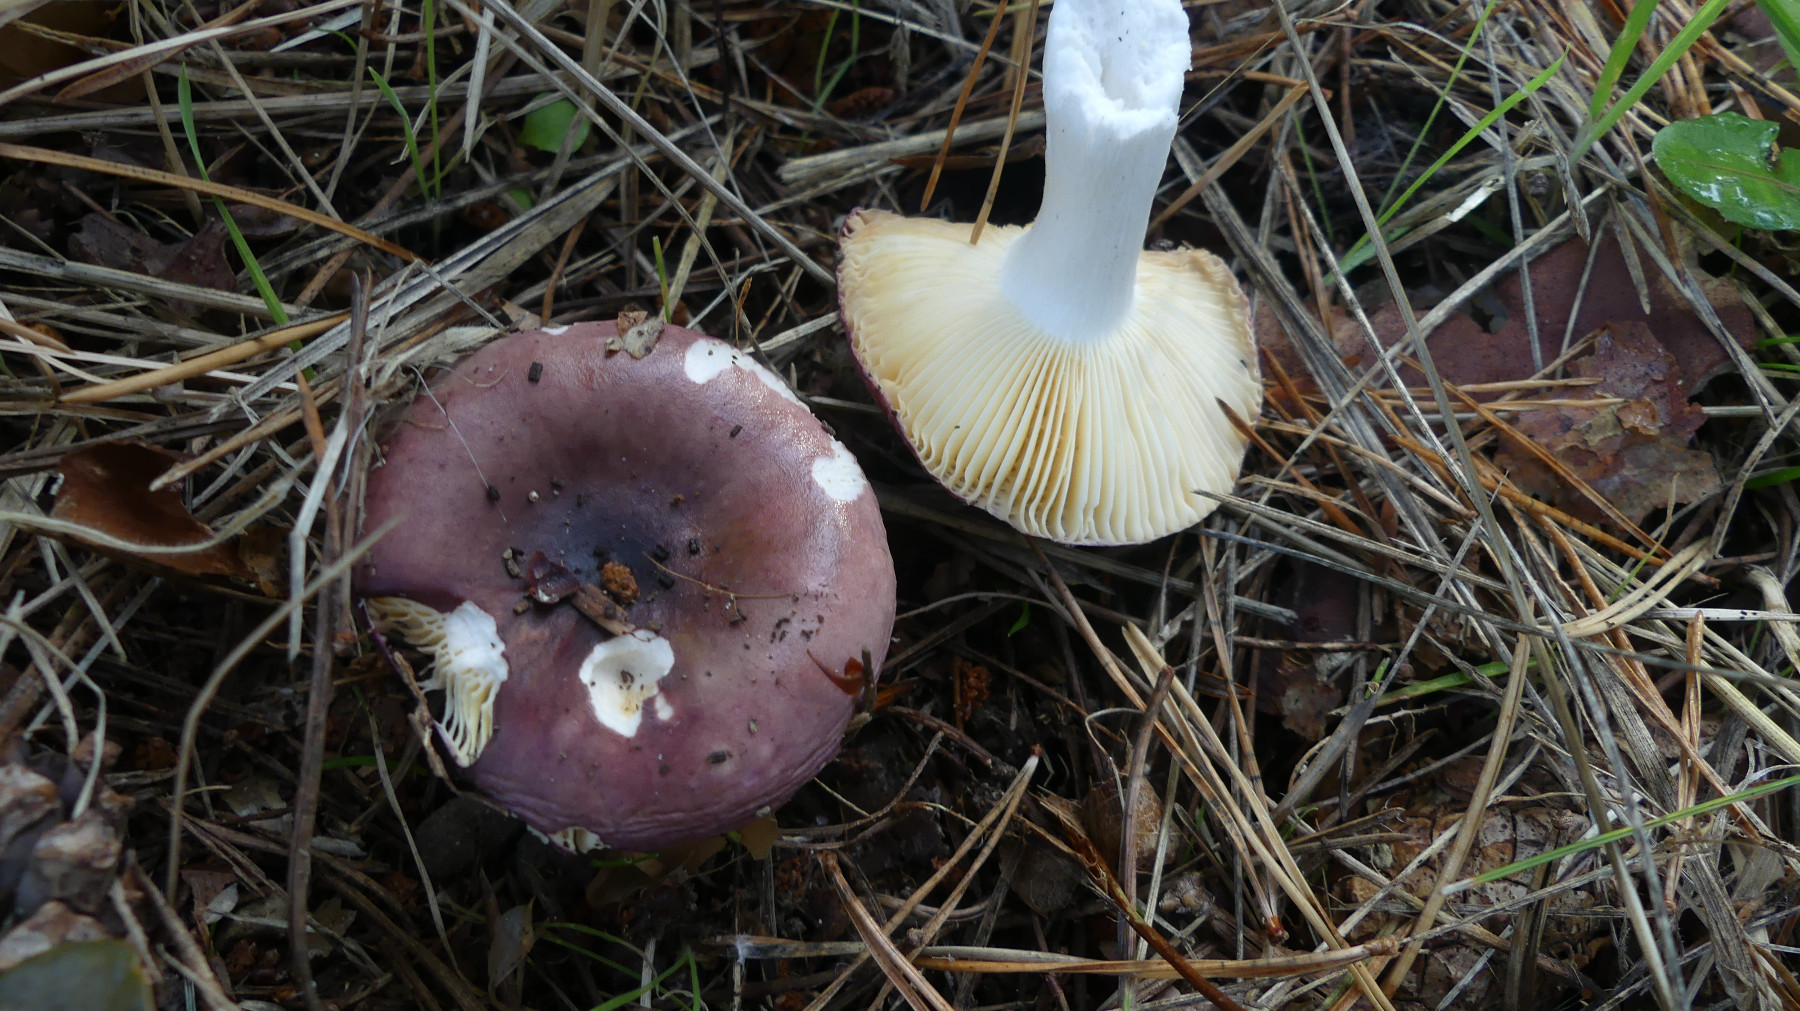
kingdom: Fungi
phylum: Basidiomycota
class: Agaricomycetes
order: Russulales
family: Russulaceae
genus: Russula
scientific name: Russula cessans
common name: fyrre-skørhat
